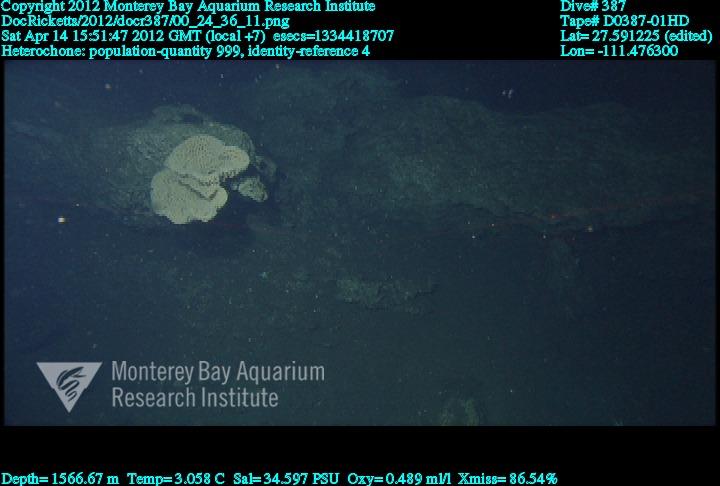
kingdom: Animalia
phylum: Porifera
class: Hexactinellida
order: Sceptrulophora
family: Aphrocallistidae
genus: Heterochone
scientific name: Heterochone
